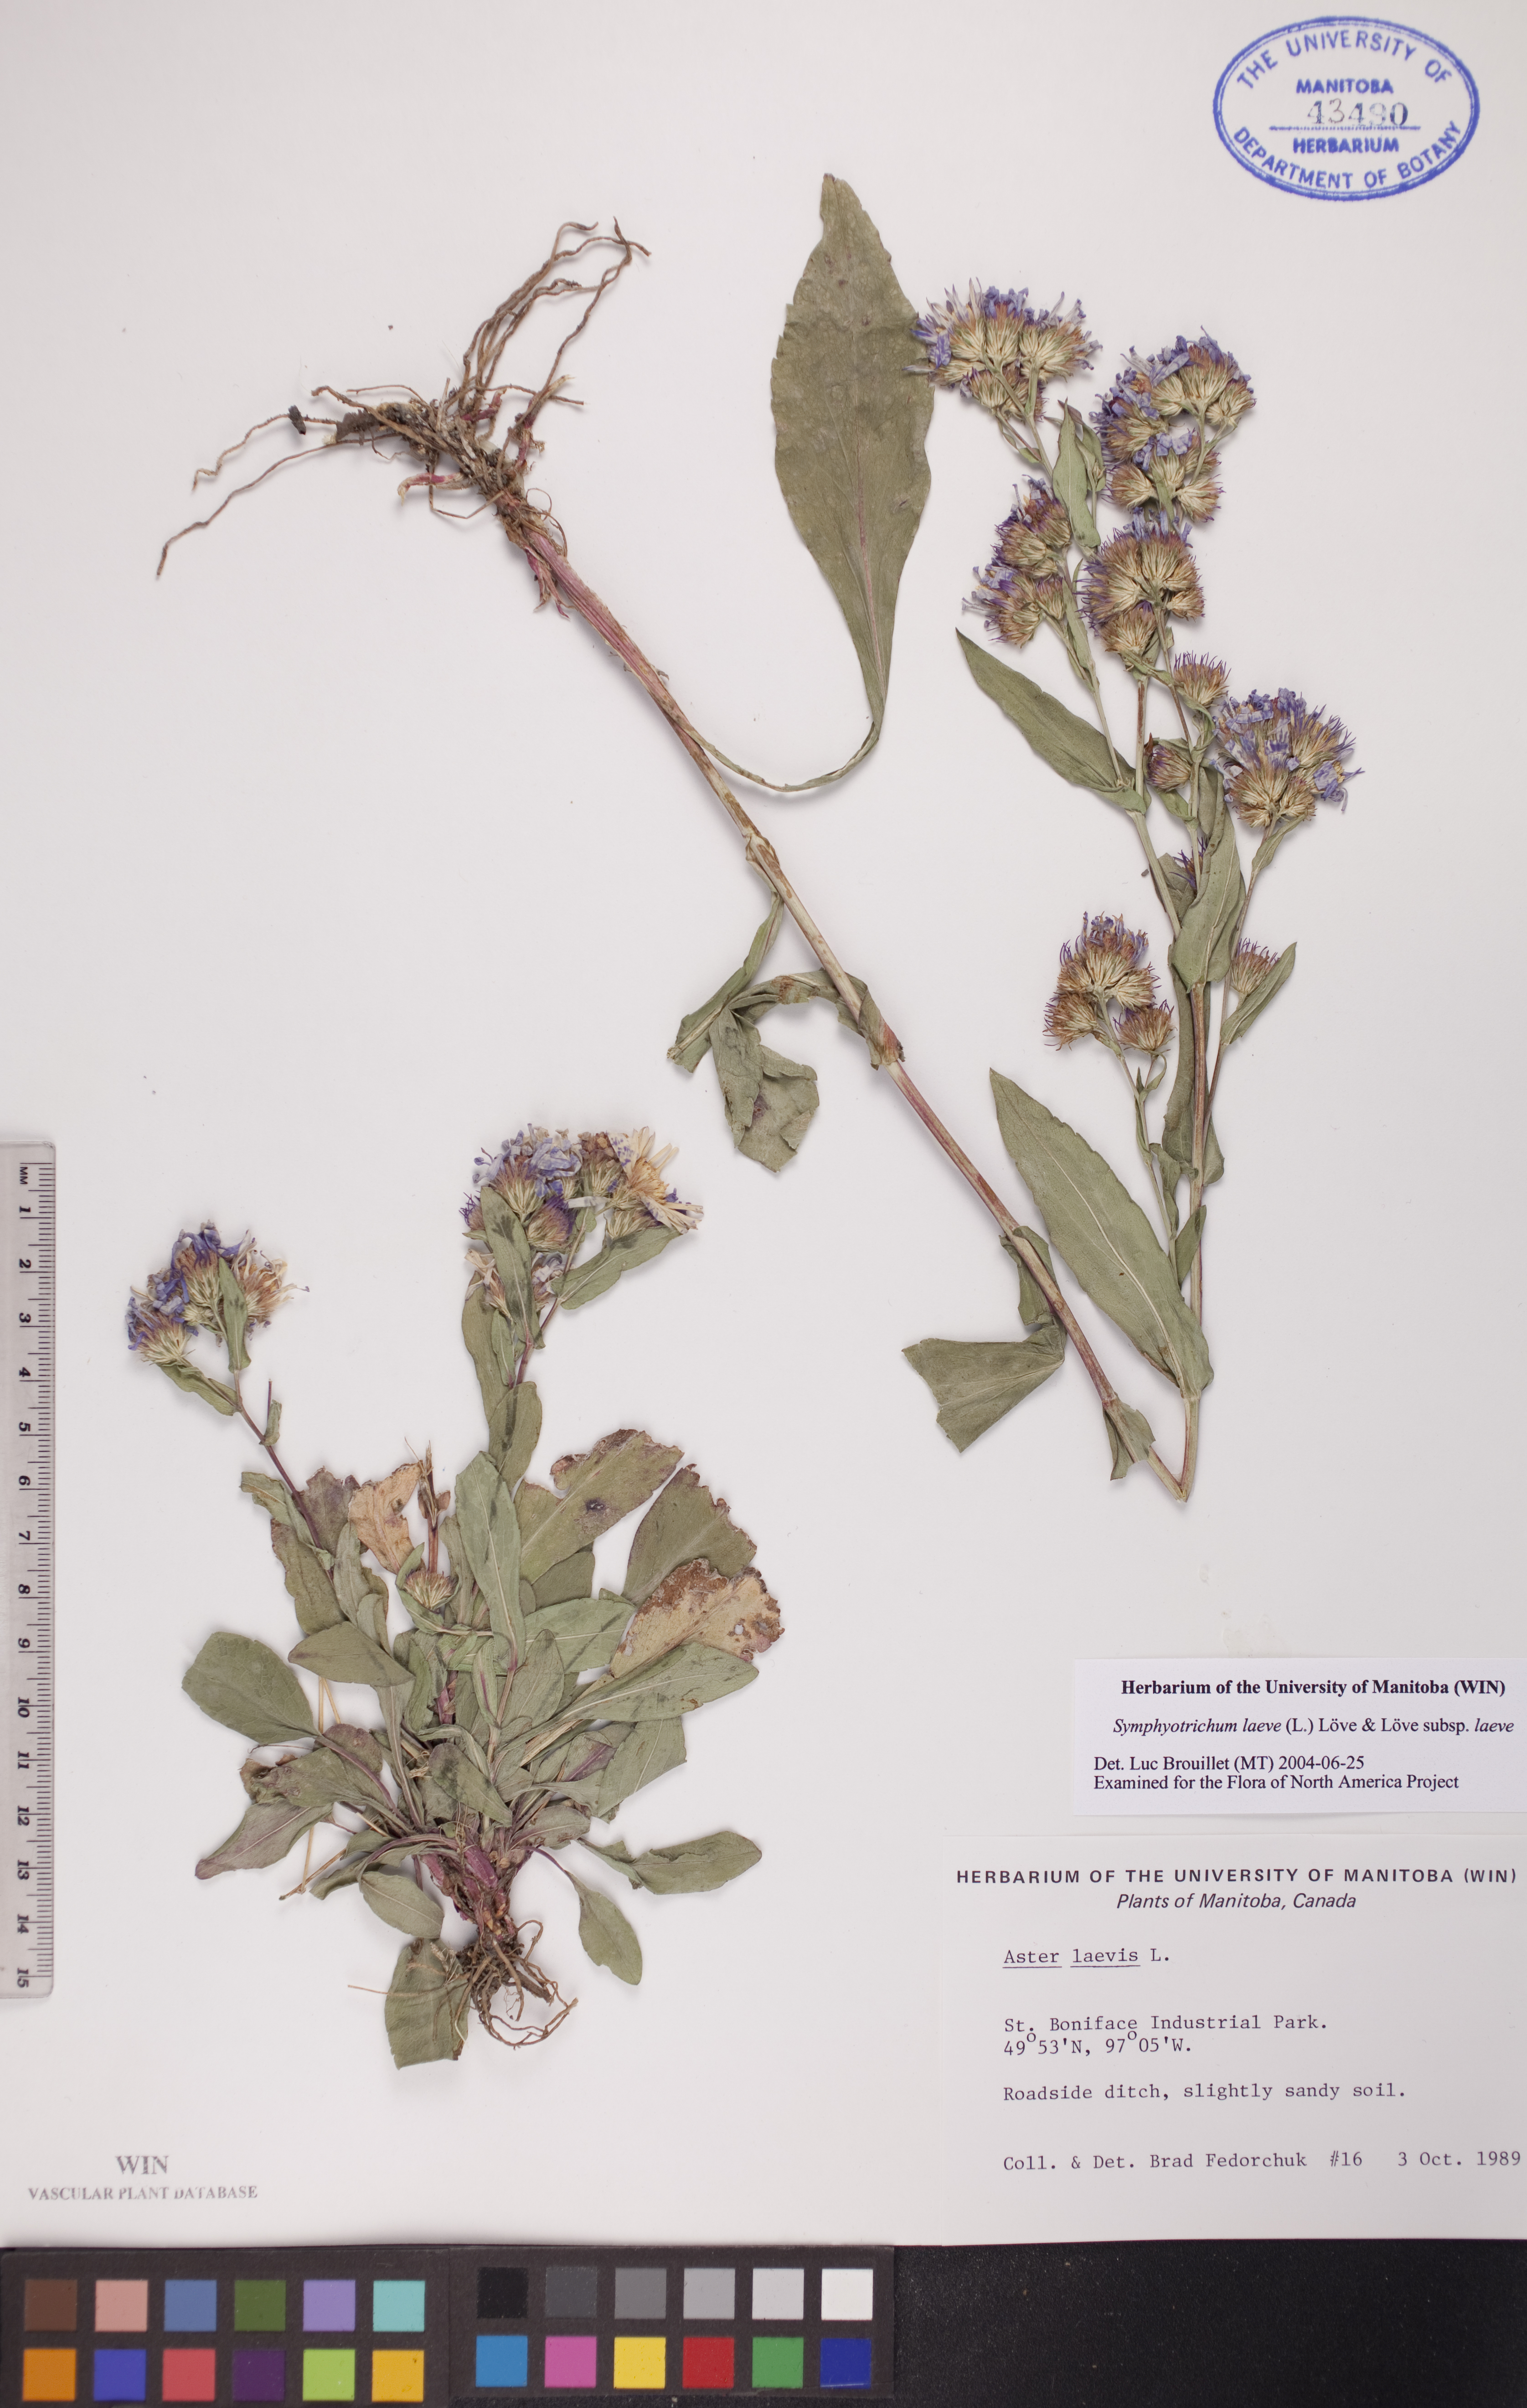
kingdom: Plantae
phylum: Tracheophyta
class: Magnoliopsida
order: Asterales
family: Asteraceae
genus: Symphyotrichum
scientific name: Symphyotrichum laeve
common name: Glaucous aster
